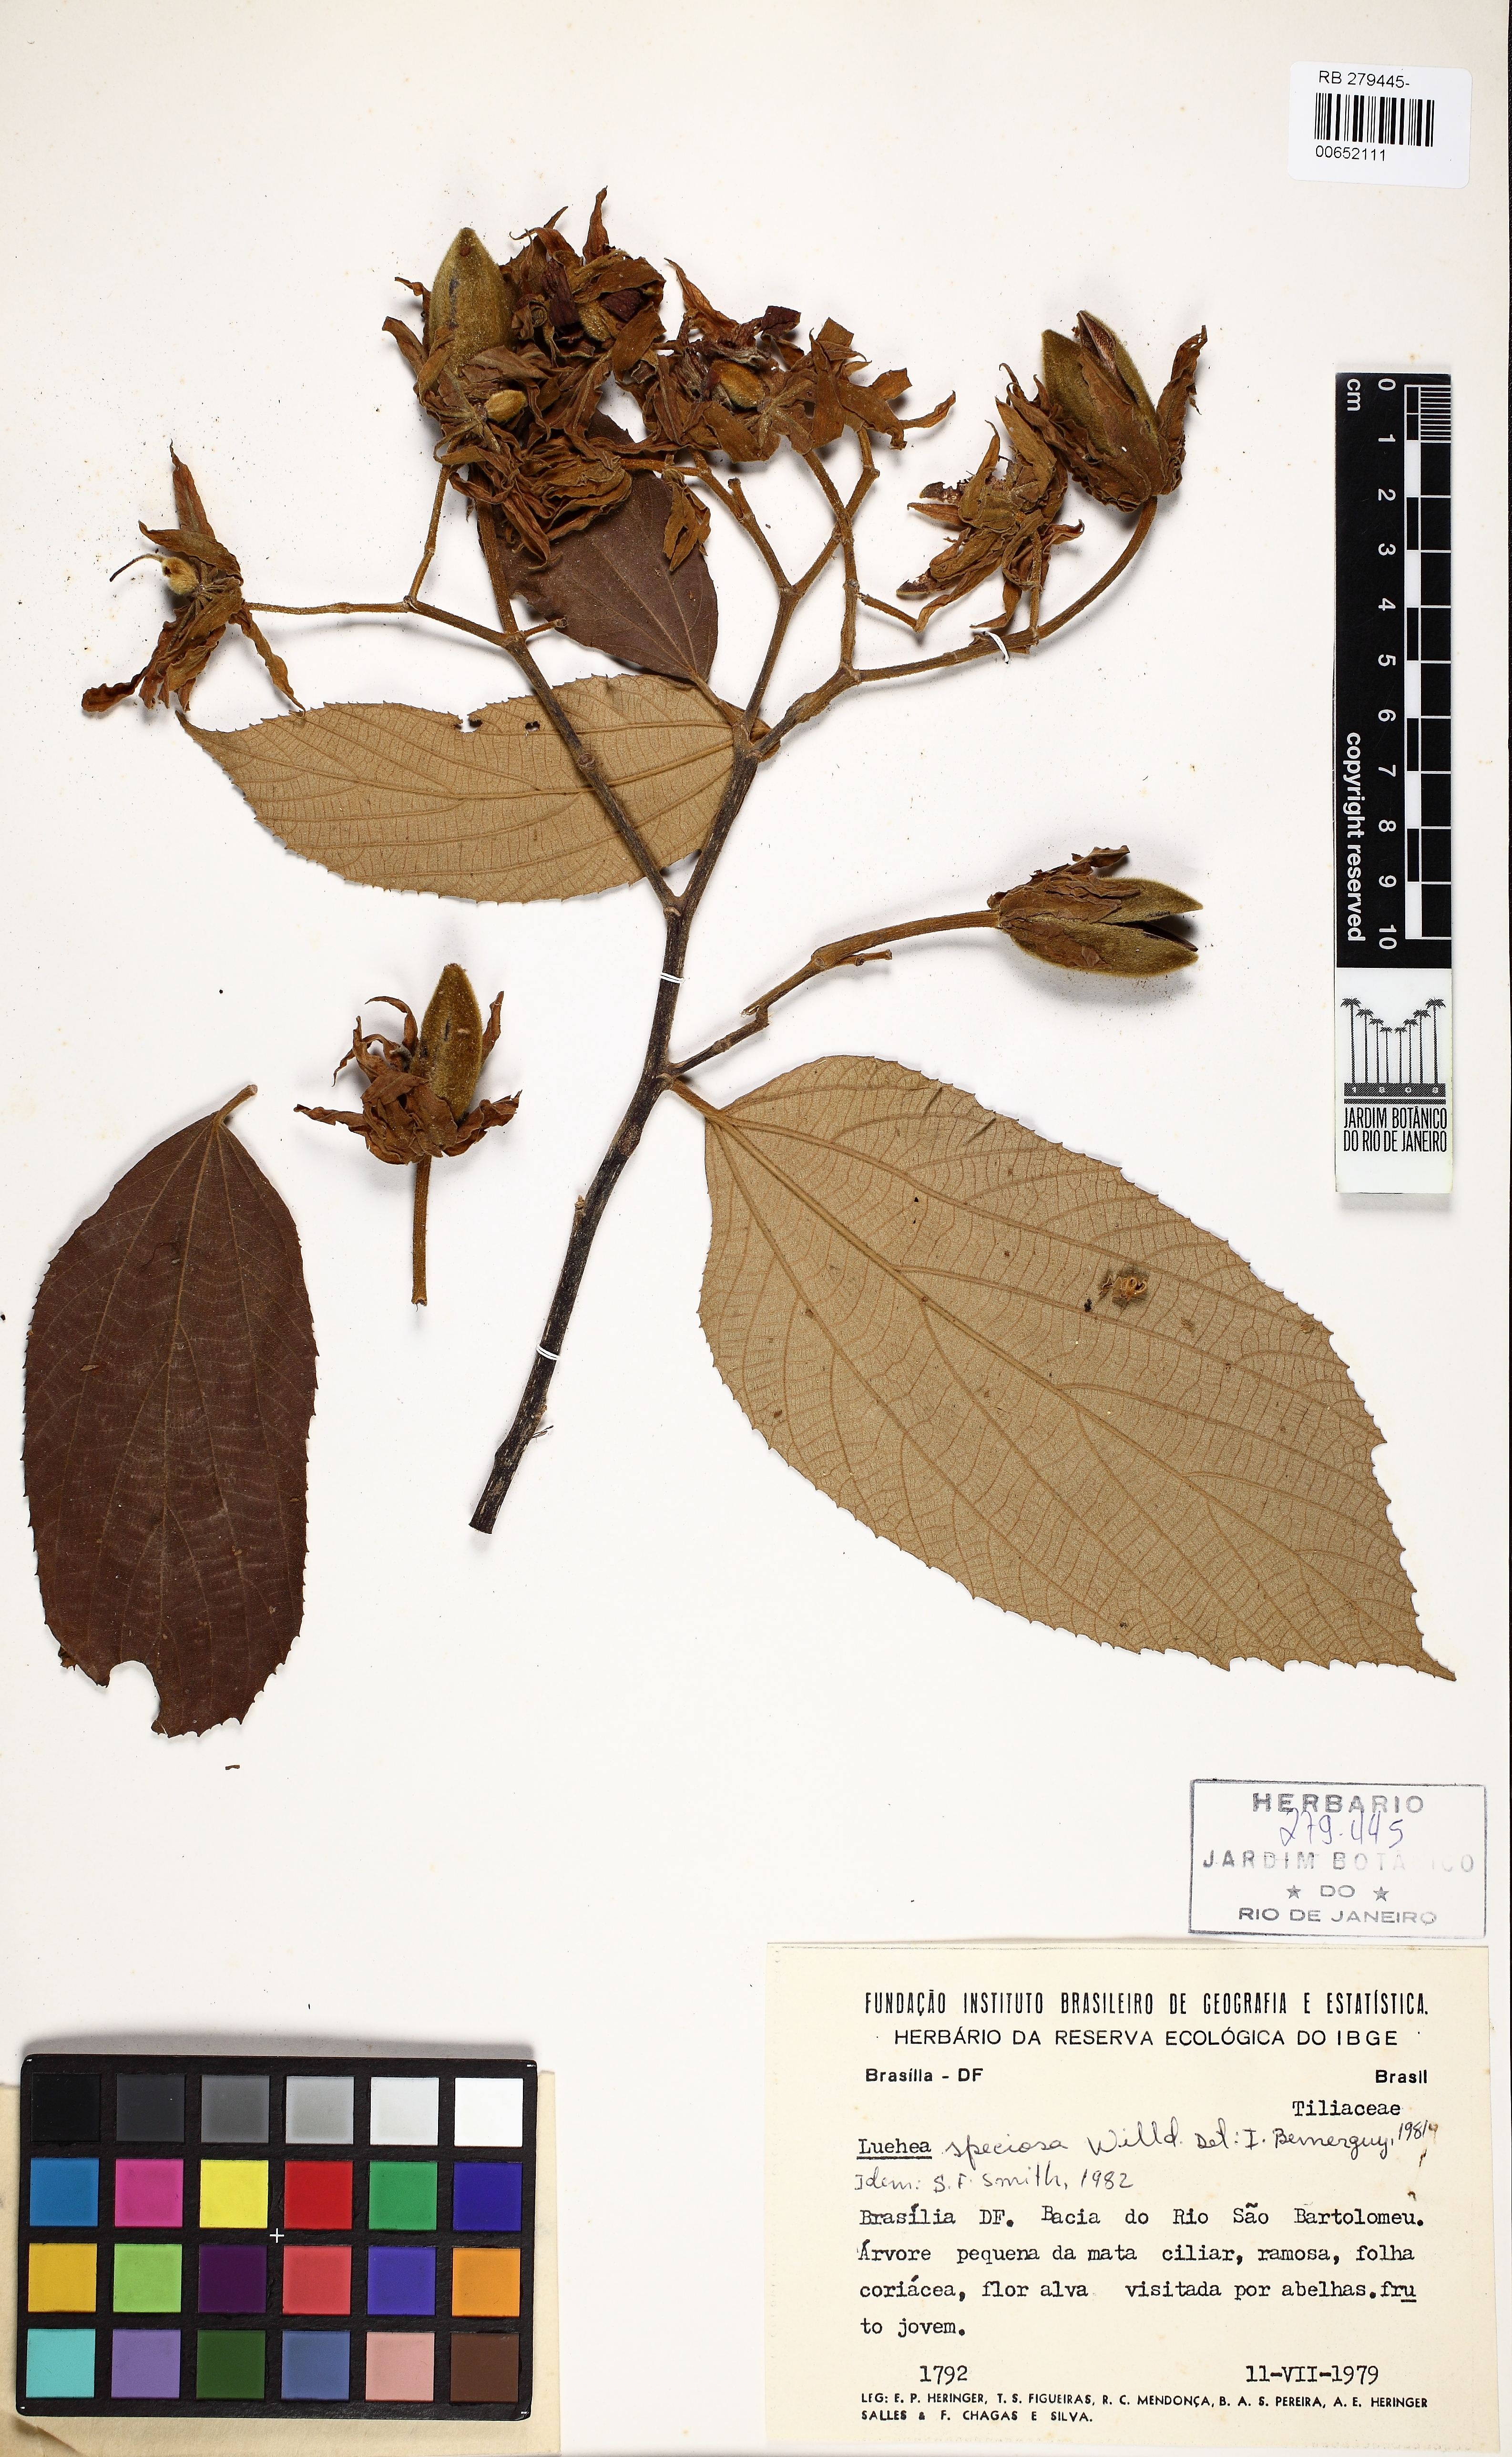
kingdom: Plantae
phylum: Tracheophyta
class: Magnoliopsida
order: Malvales
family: Malvaceae
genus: Luehea
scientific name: Luehea rufescens
